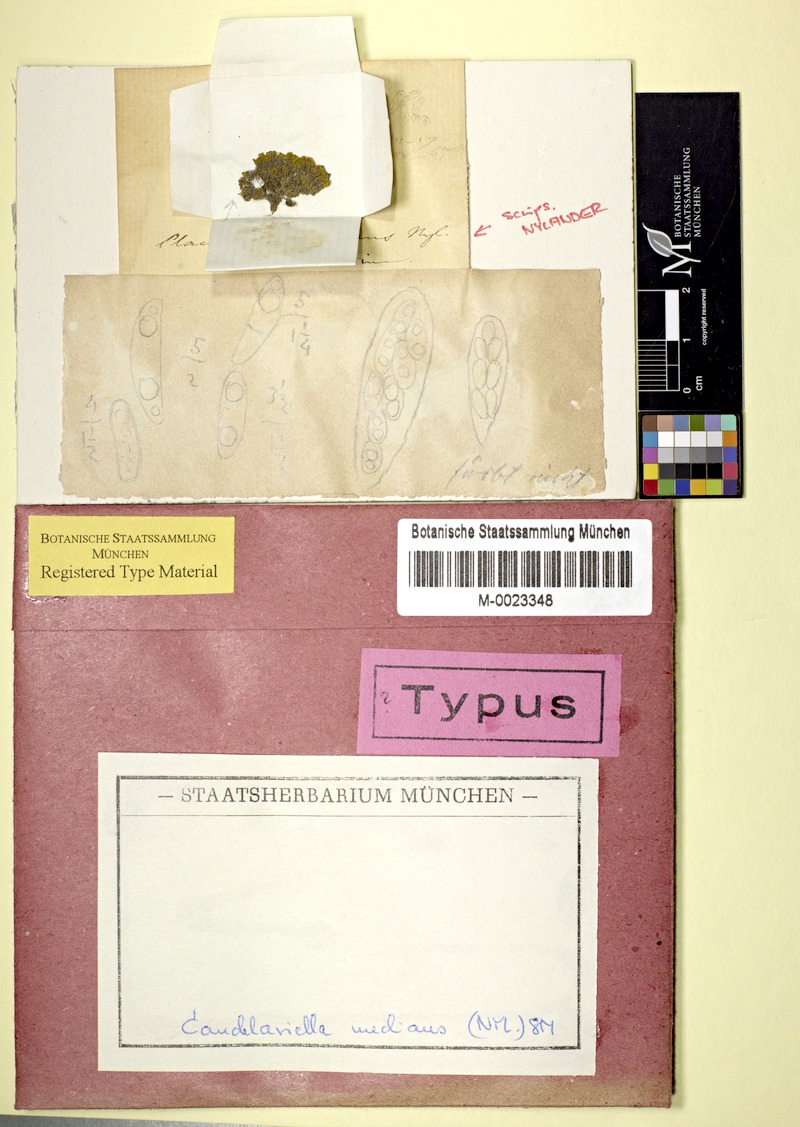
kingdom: Fungi
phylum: Ascomycota
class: Candelariomycetes
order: Candelariales
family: Candelariaceae
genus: Candelariella
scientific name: Candelariella medians
